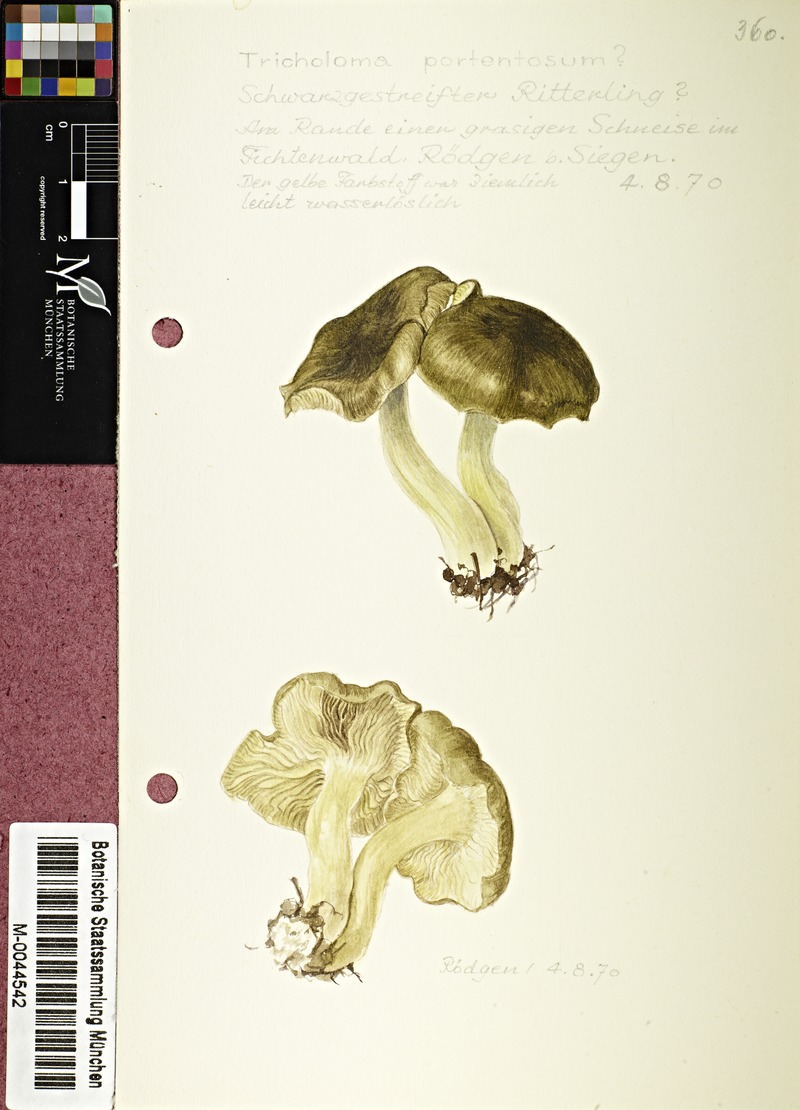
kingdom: Fungi
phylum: Basidiomycota
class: Agaricomycetes
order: Agaricales
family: Tricholomataceae
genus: Tricholoma
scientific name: Tricholoma portentosum
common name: Coalman
